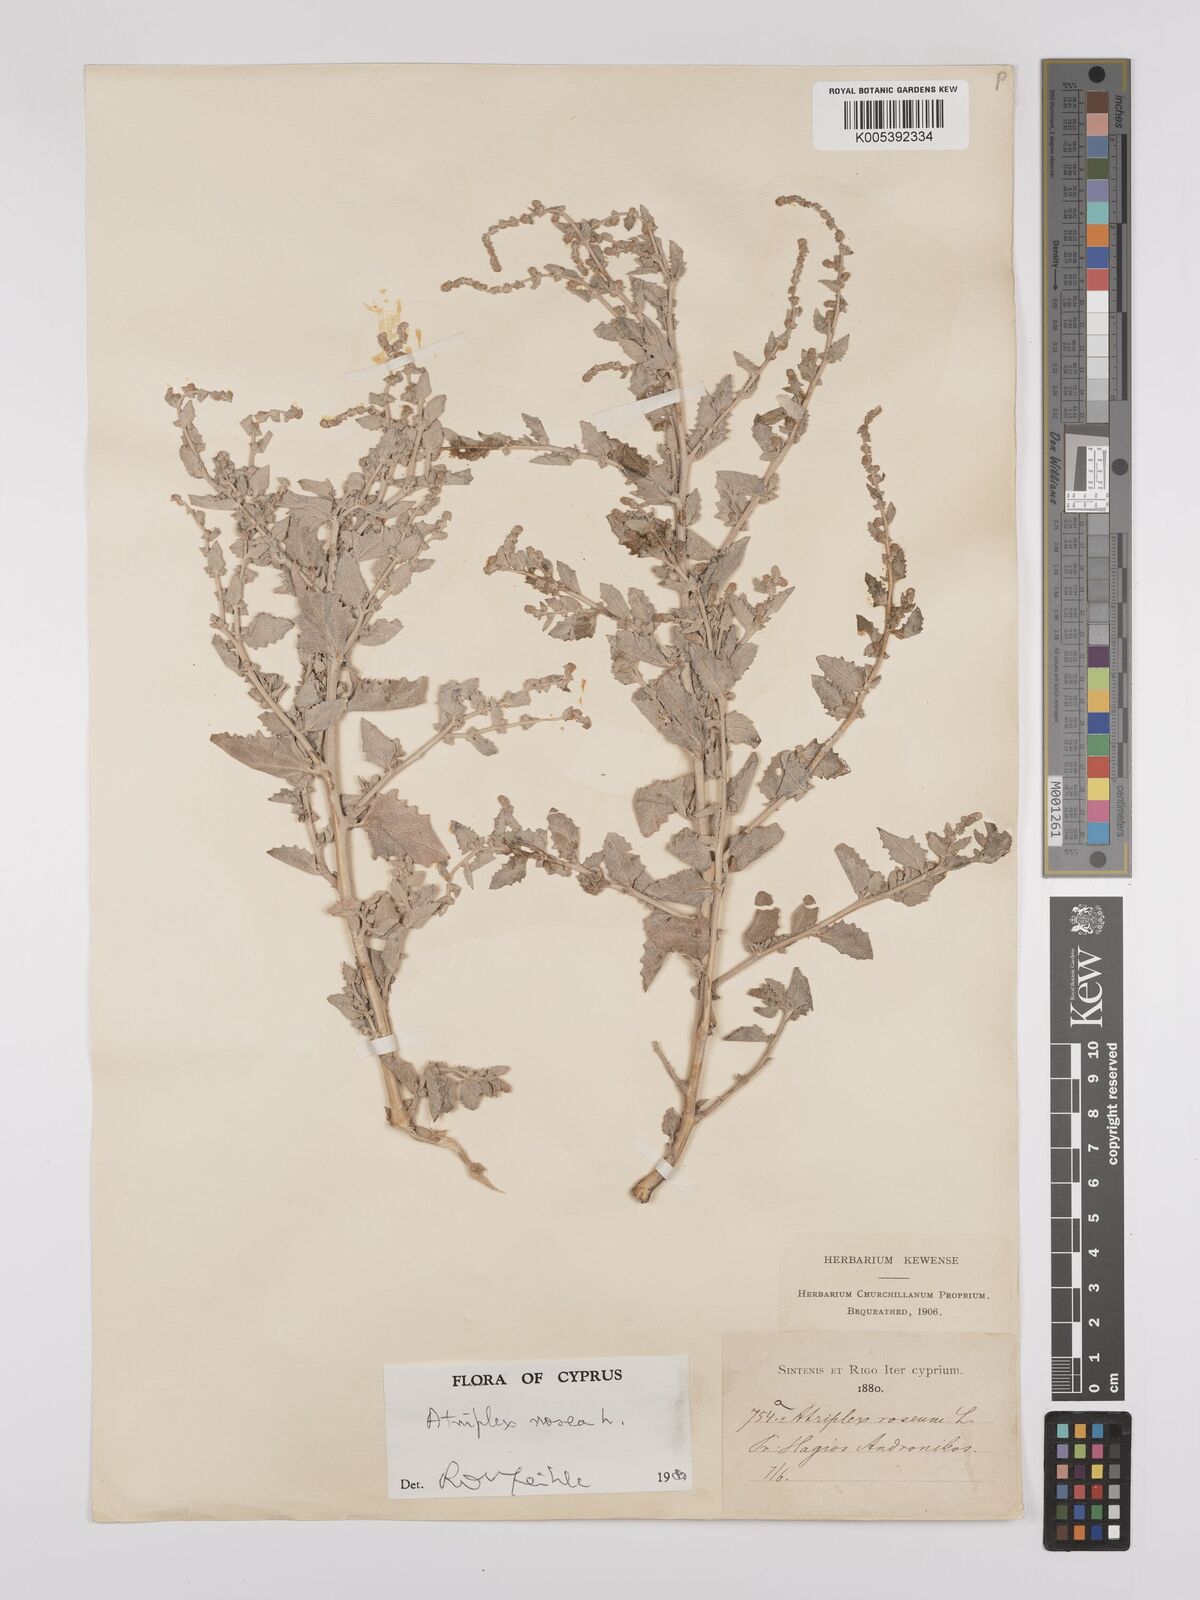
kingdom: Plantae
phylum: Tracheophyta
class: Magnoliopsida
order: Caryophyllales
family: Amaranthaceae
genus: Atriplex
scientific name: Atriplex
